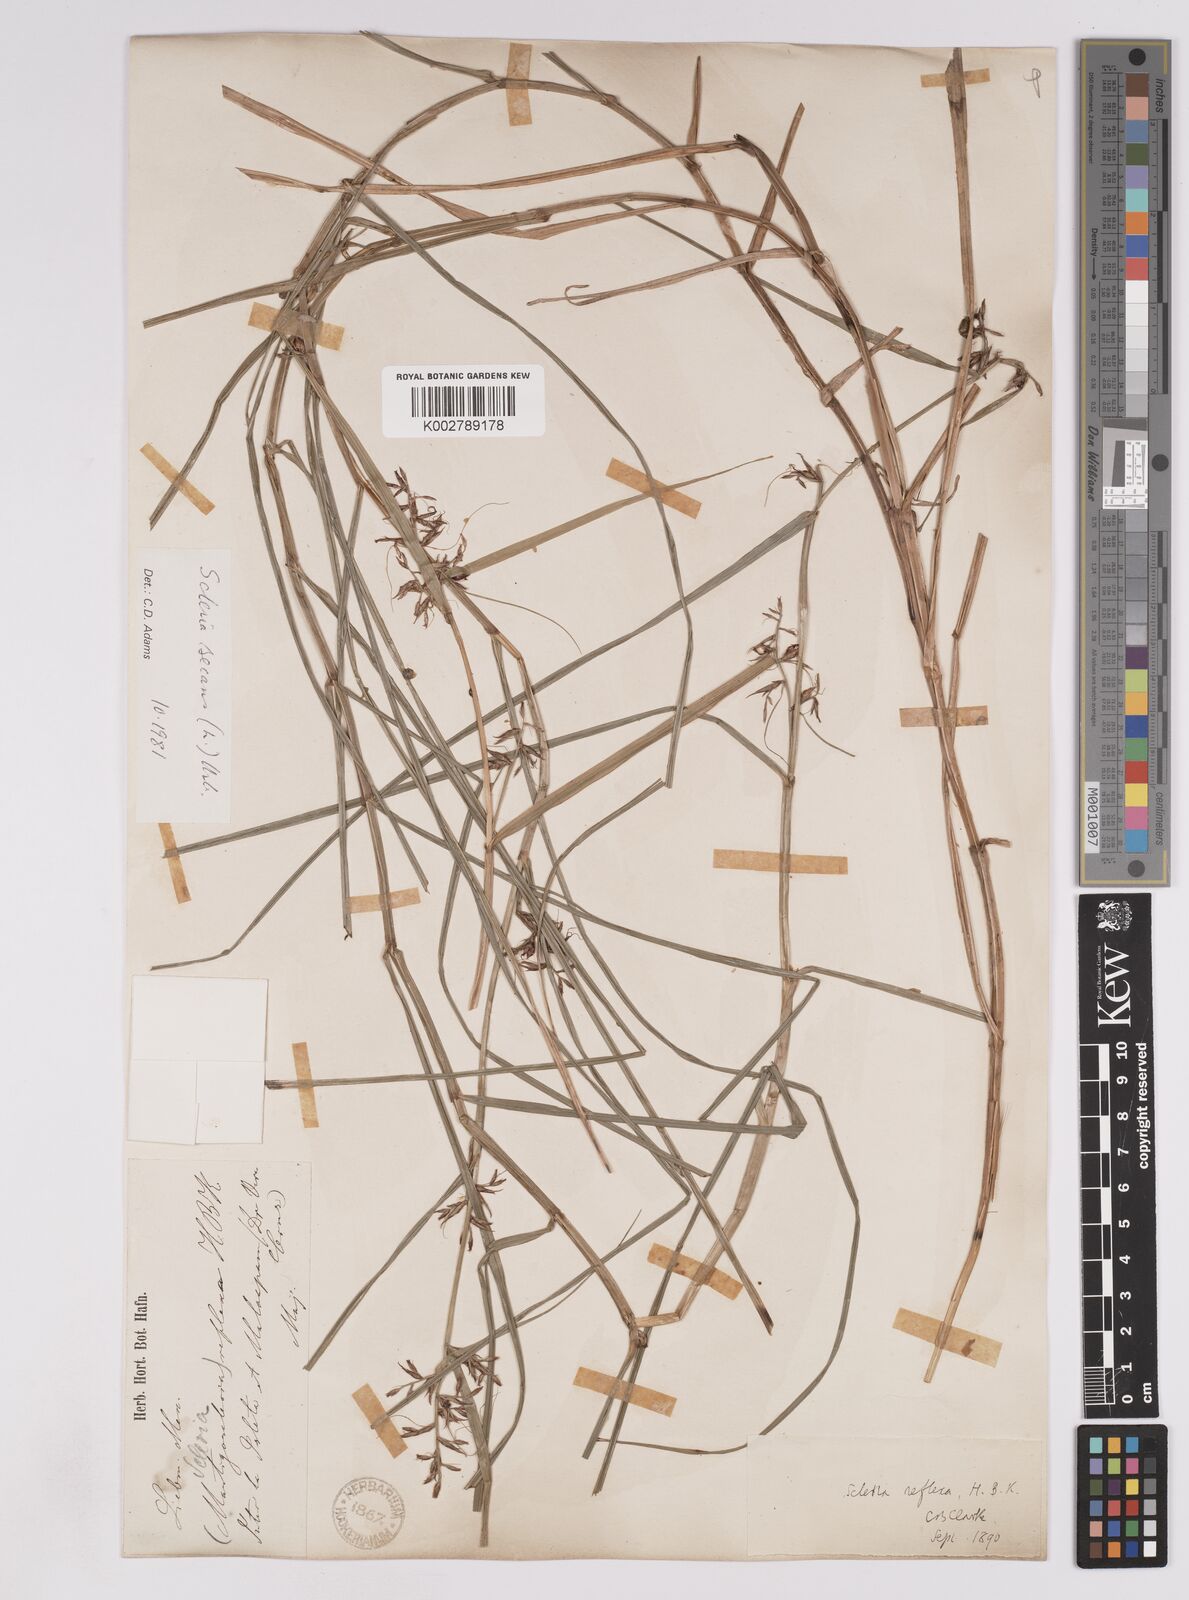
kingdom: Plantae
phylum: Tracheophyta
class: Liliopsida
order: Poales
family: Cyperaceae
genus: Scleria
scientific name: Scleria secans
